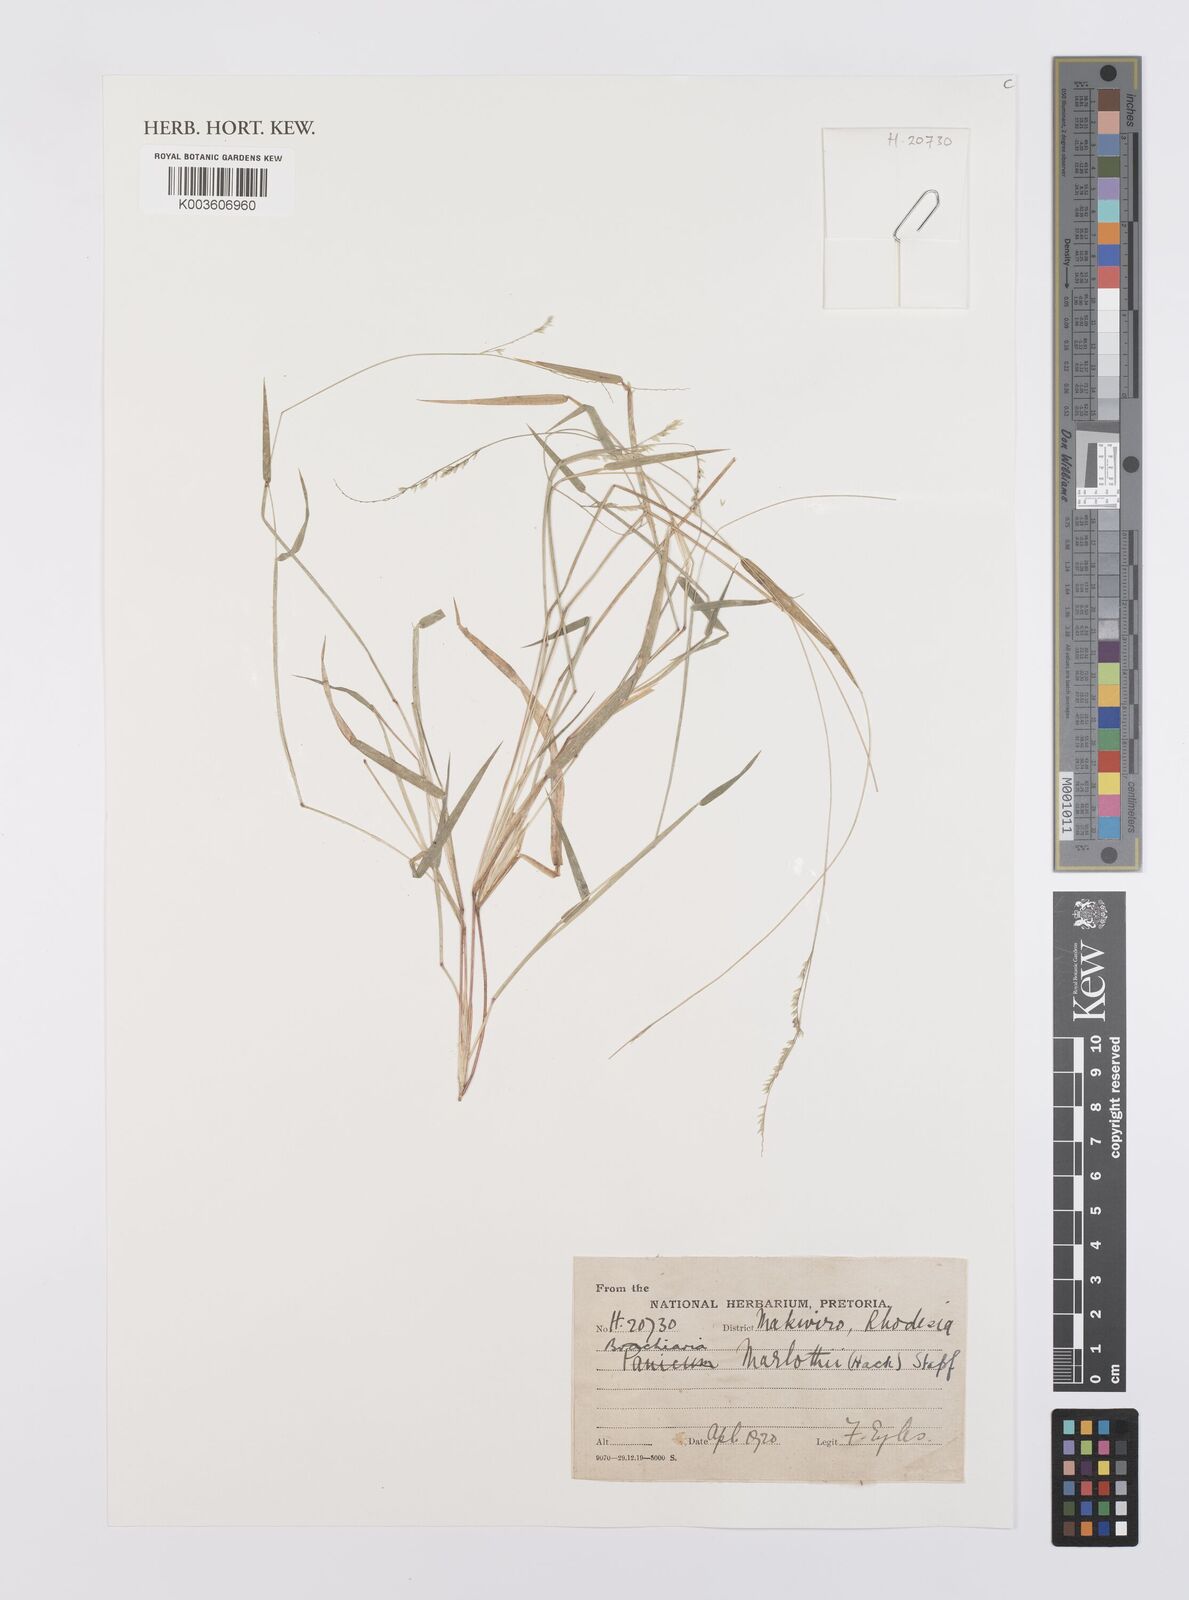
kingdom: Plantae
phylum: Tracheophyta
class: Liliopsida
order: Poales
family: Poaceae
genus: Urochloa
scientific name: Urochloa Brachiaria marlothii
